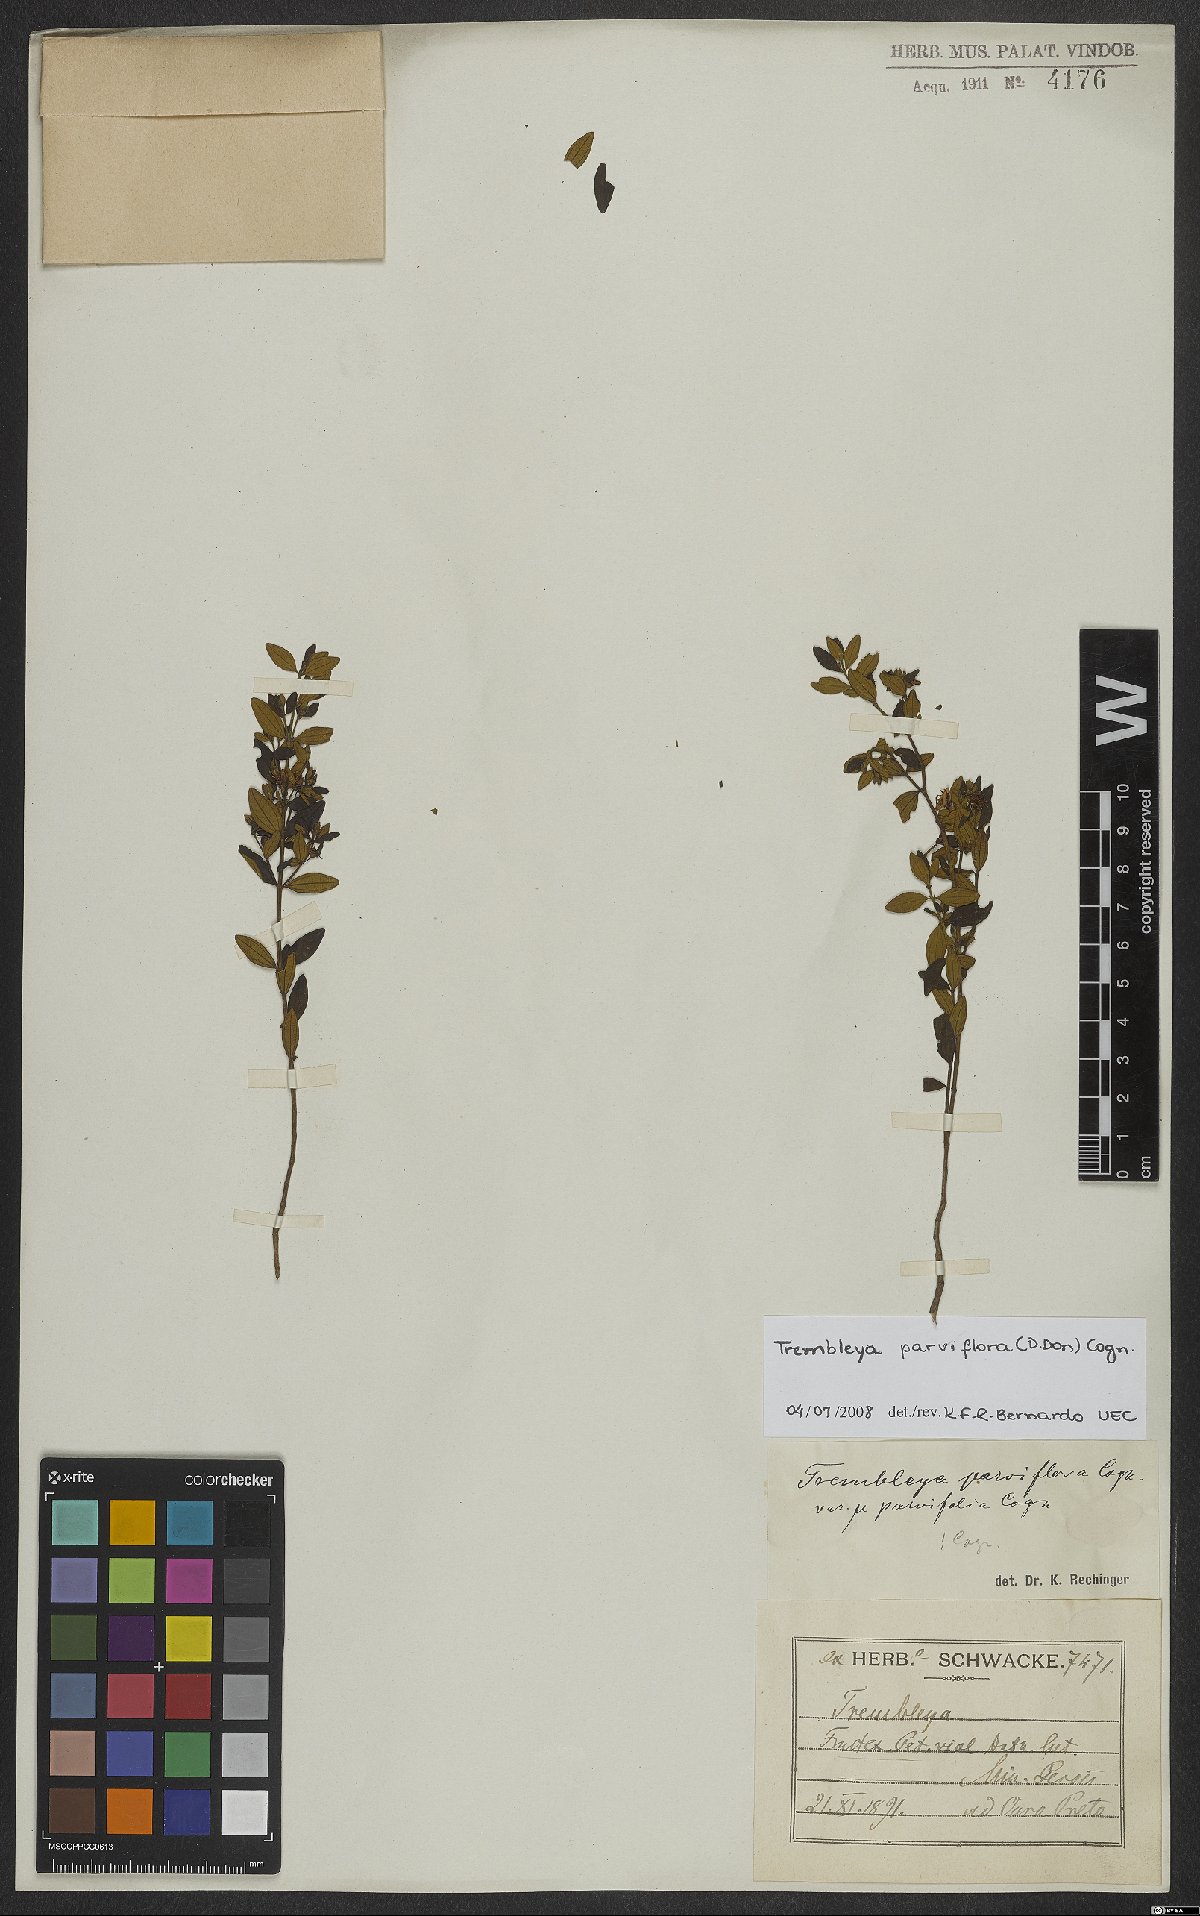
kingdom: Plantae
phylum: Tracheophyta
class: Magnoliopsida
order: Myrtales
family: Melastomataceae
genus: Microlicia
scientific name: Microlicia parviflora
